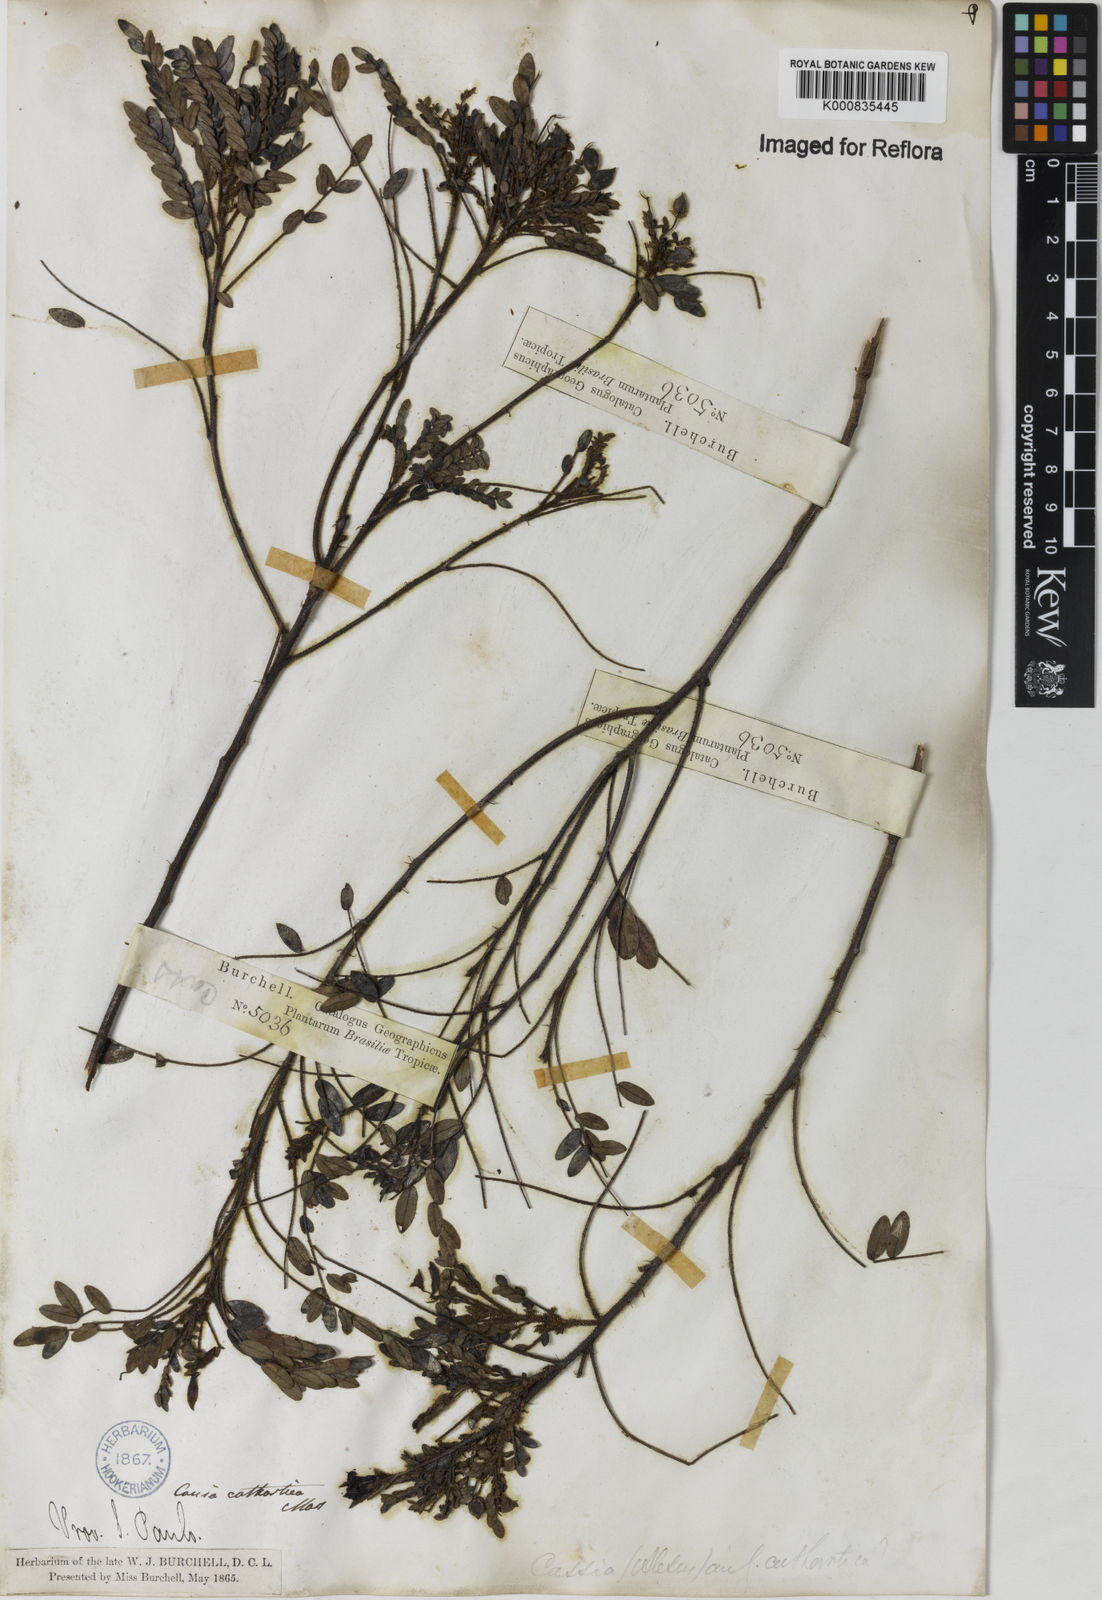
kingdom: Plantae
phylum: Tracheophyta
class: Magnoliopsida
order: Fabales
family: Fabaceae
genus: Chamaecrista
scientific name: Chamaecrista cathartica
